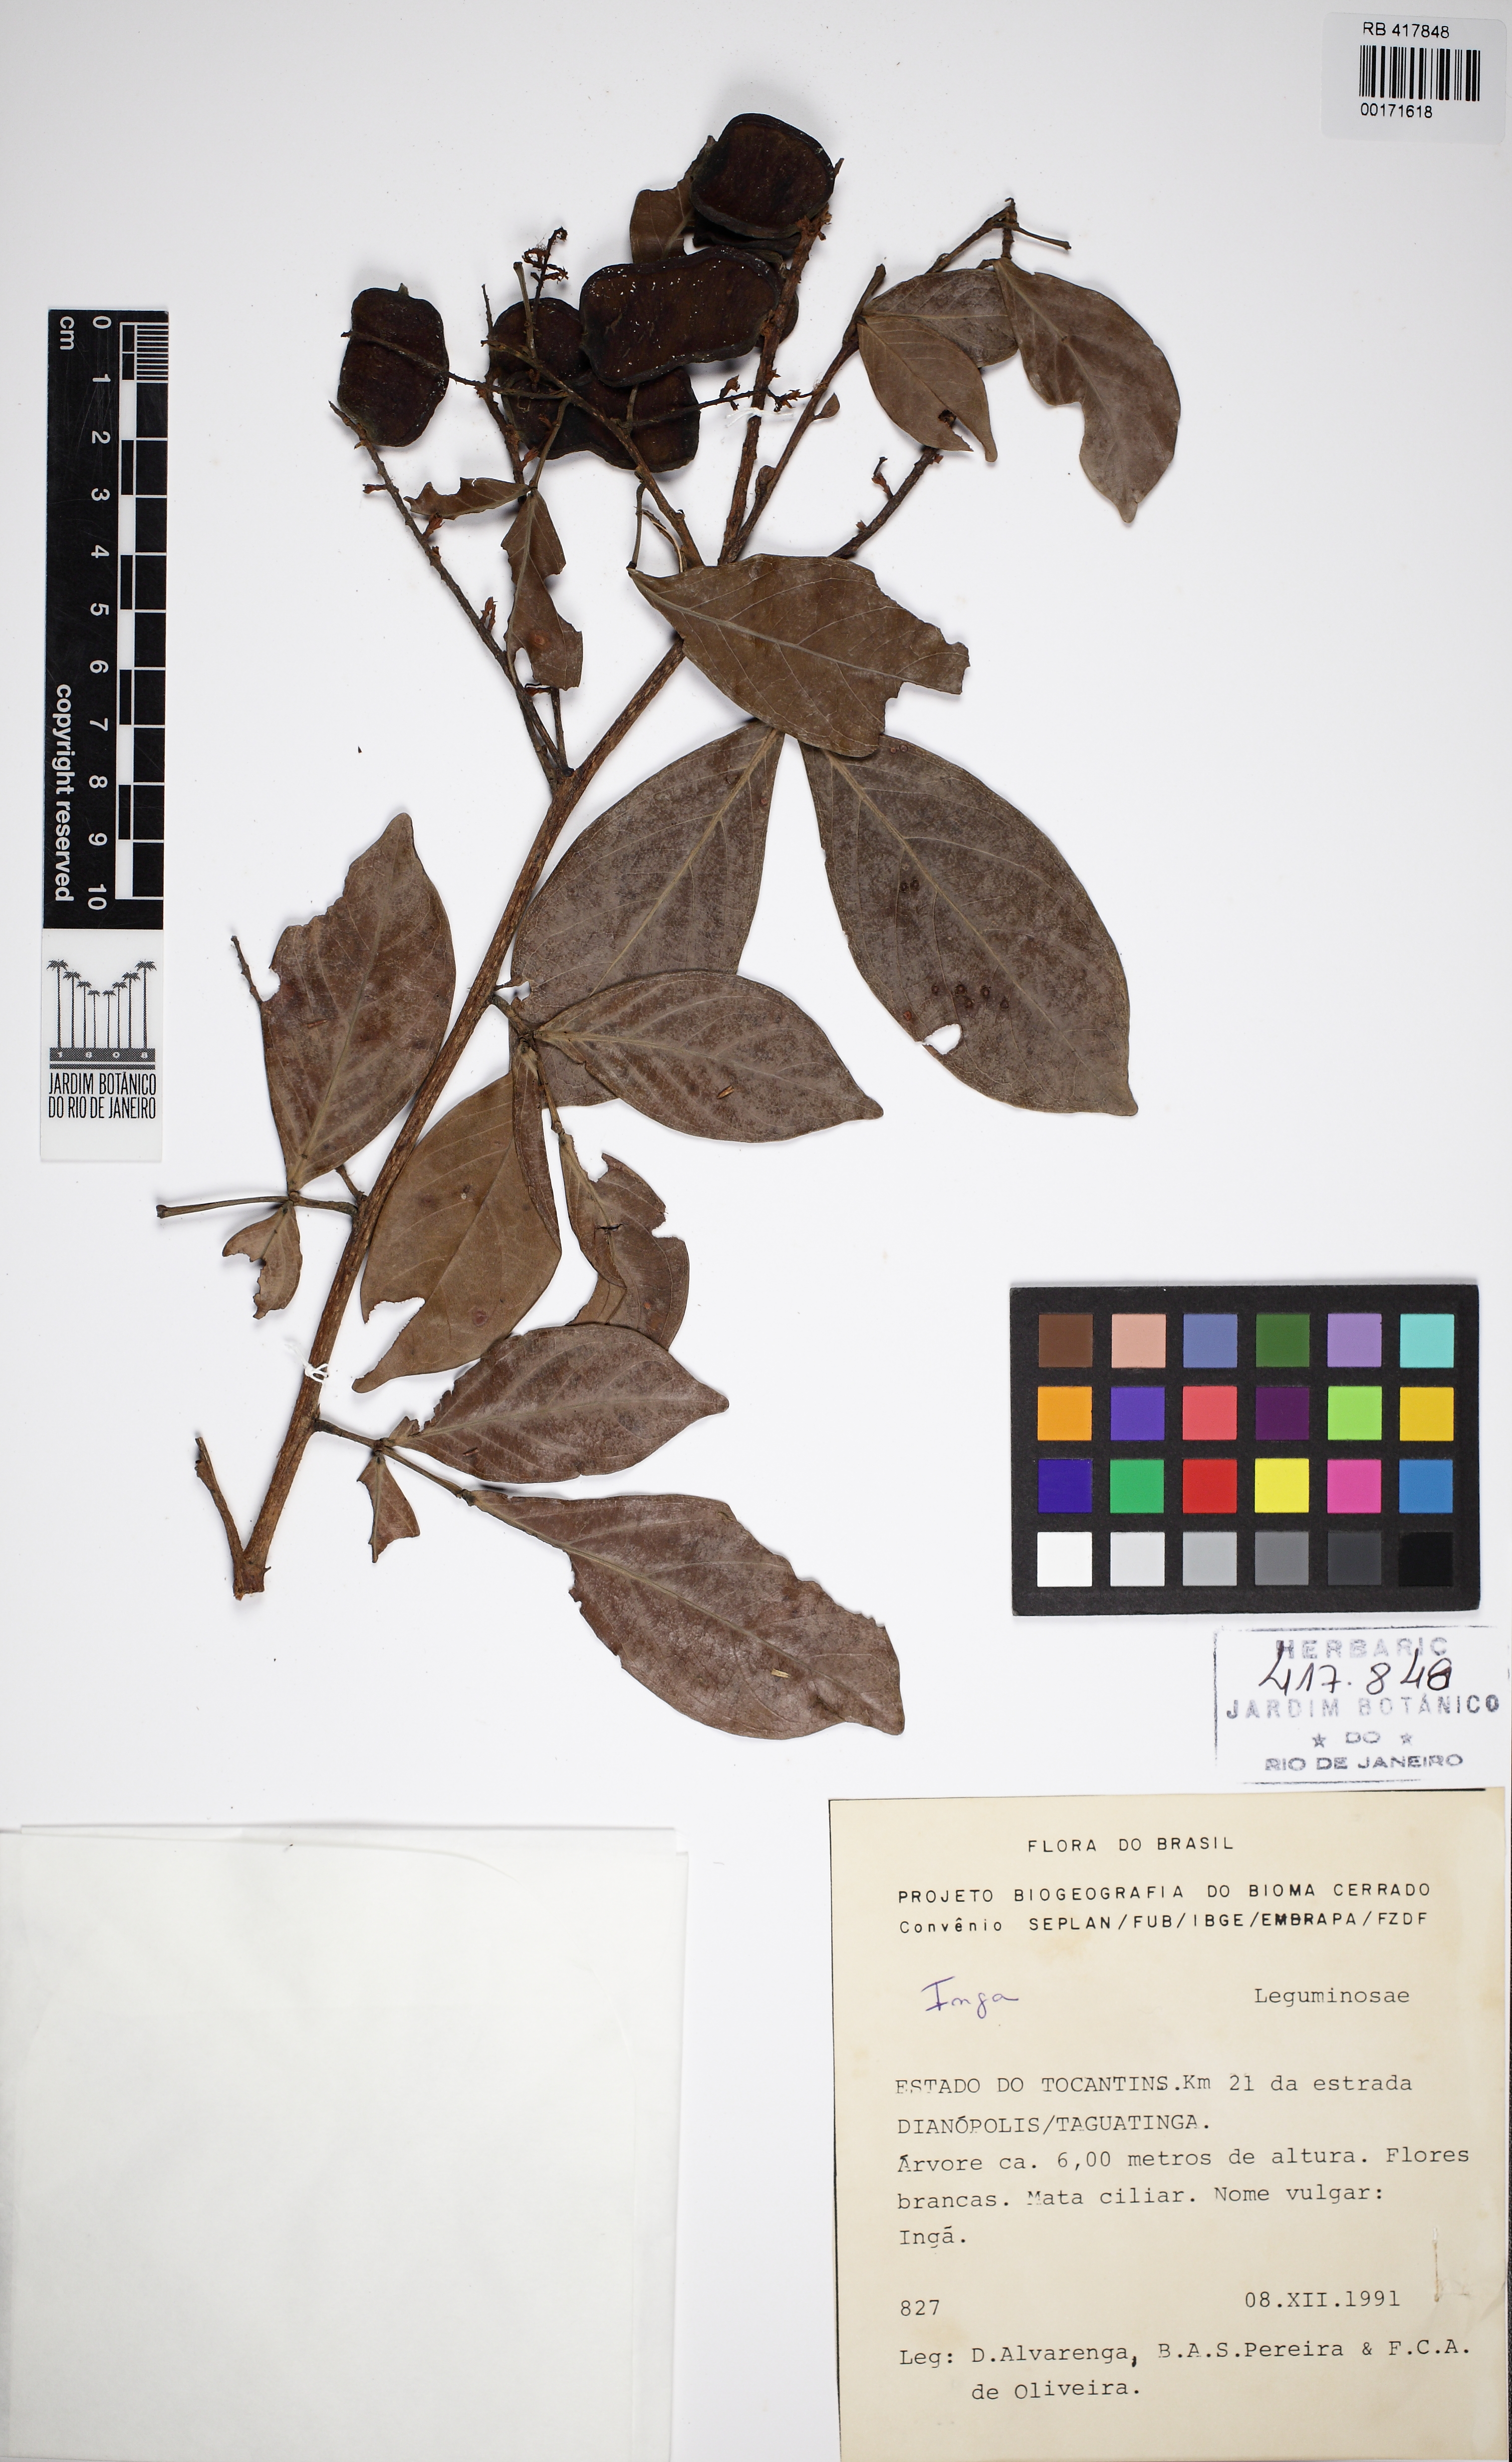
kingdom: Plantae
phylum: Tracheophyta
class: Magnoliopsida
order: Fabales
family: Fabaceae
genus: Inga
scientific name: Inga laurina
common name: Red wood
